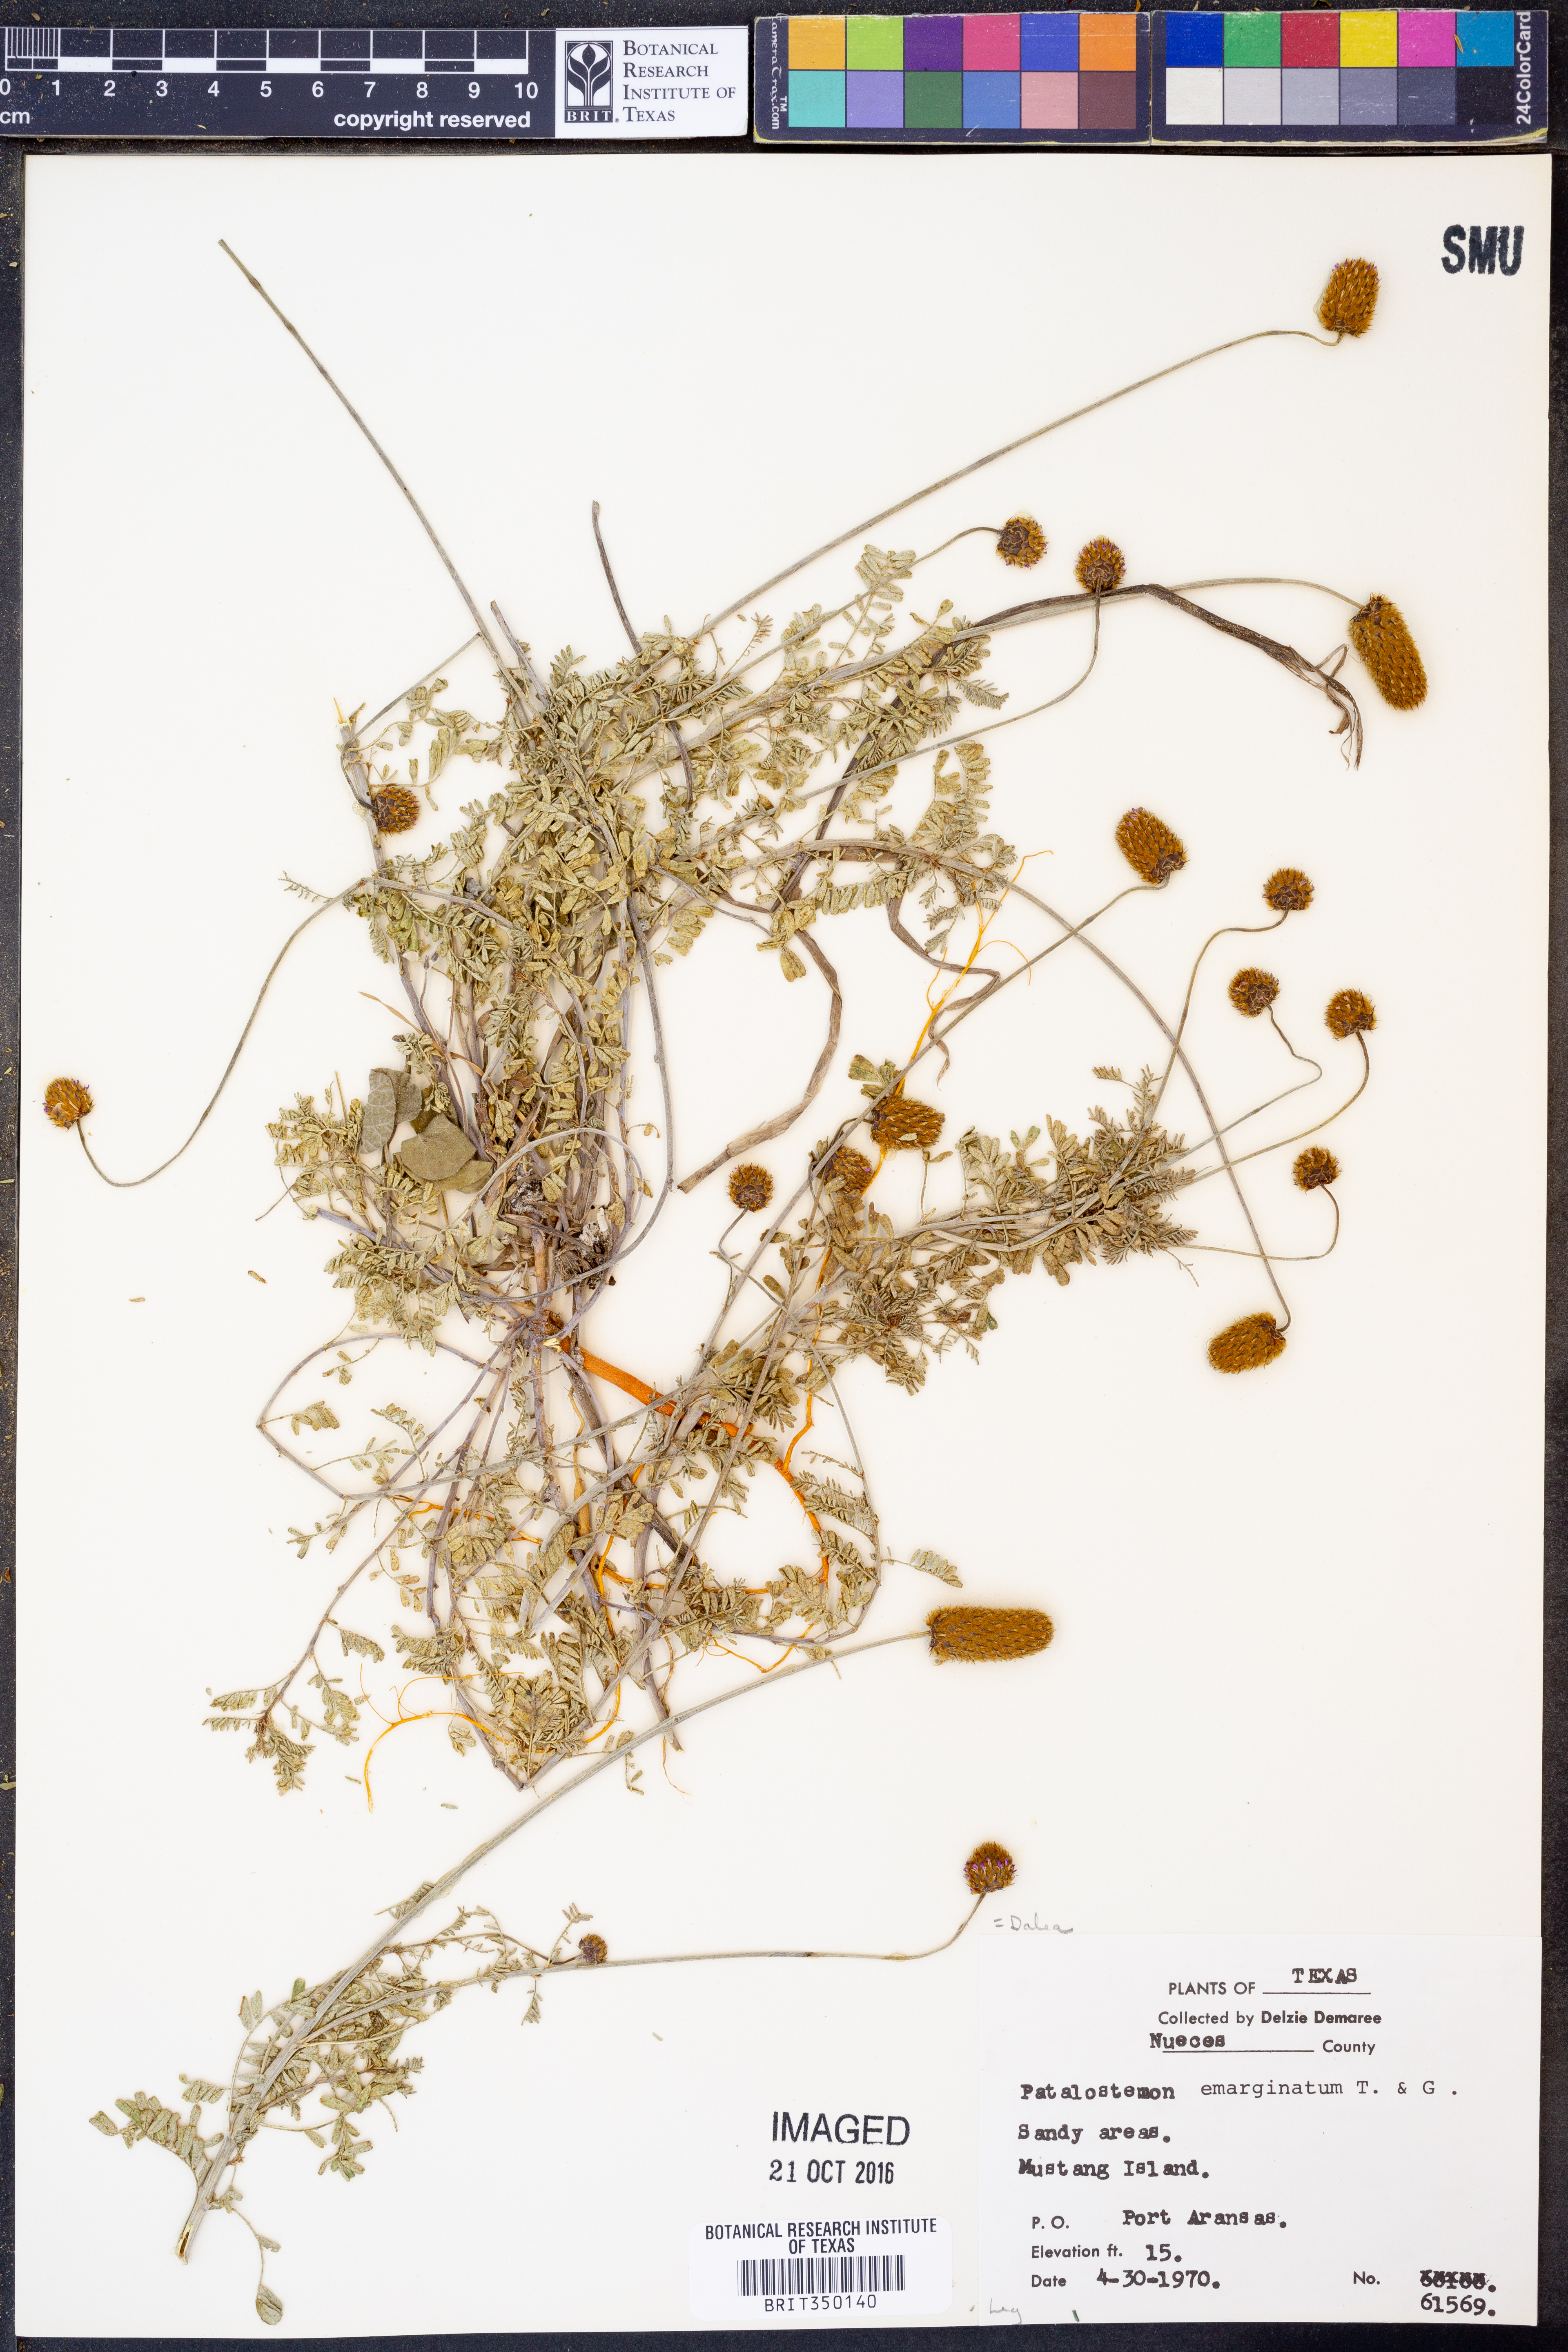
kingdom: Plantae
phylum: Tracheophyta
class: Magnoliopsida
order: Fabales
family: Fabaceae
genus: Dalea
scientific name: Dalea emarginata
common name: Wedgeleaf prairie clover
